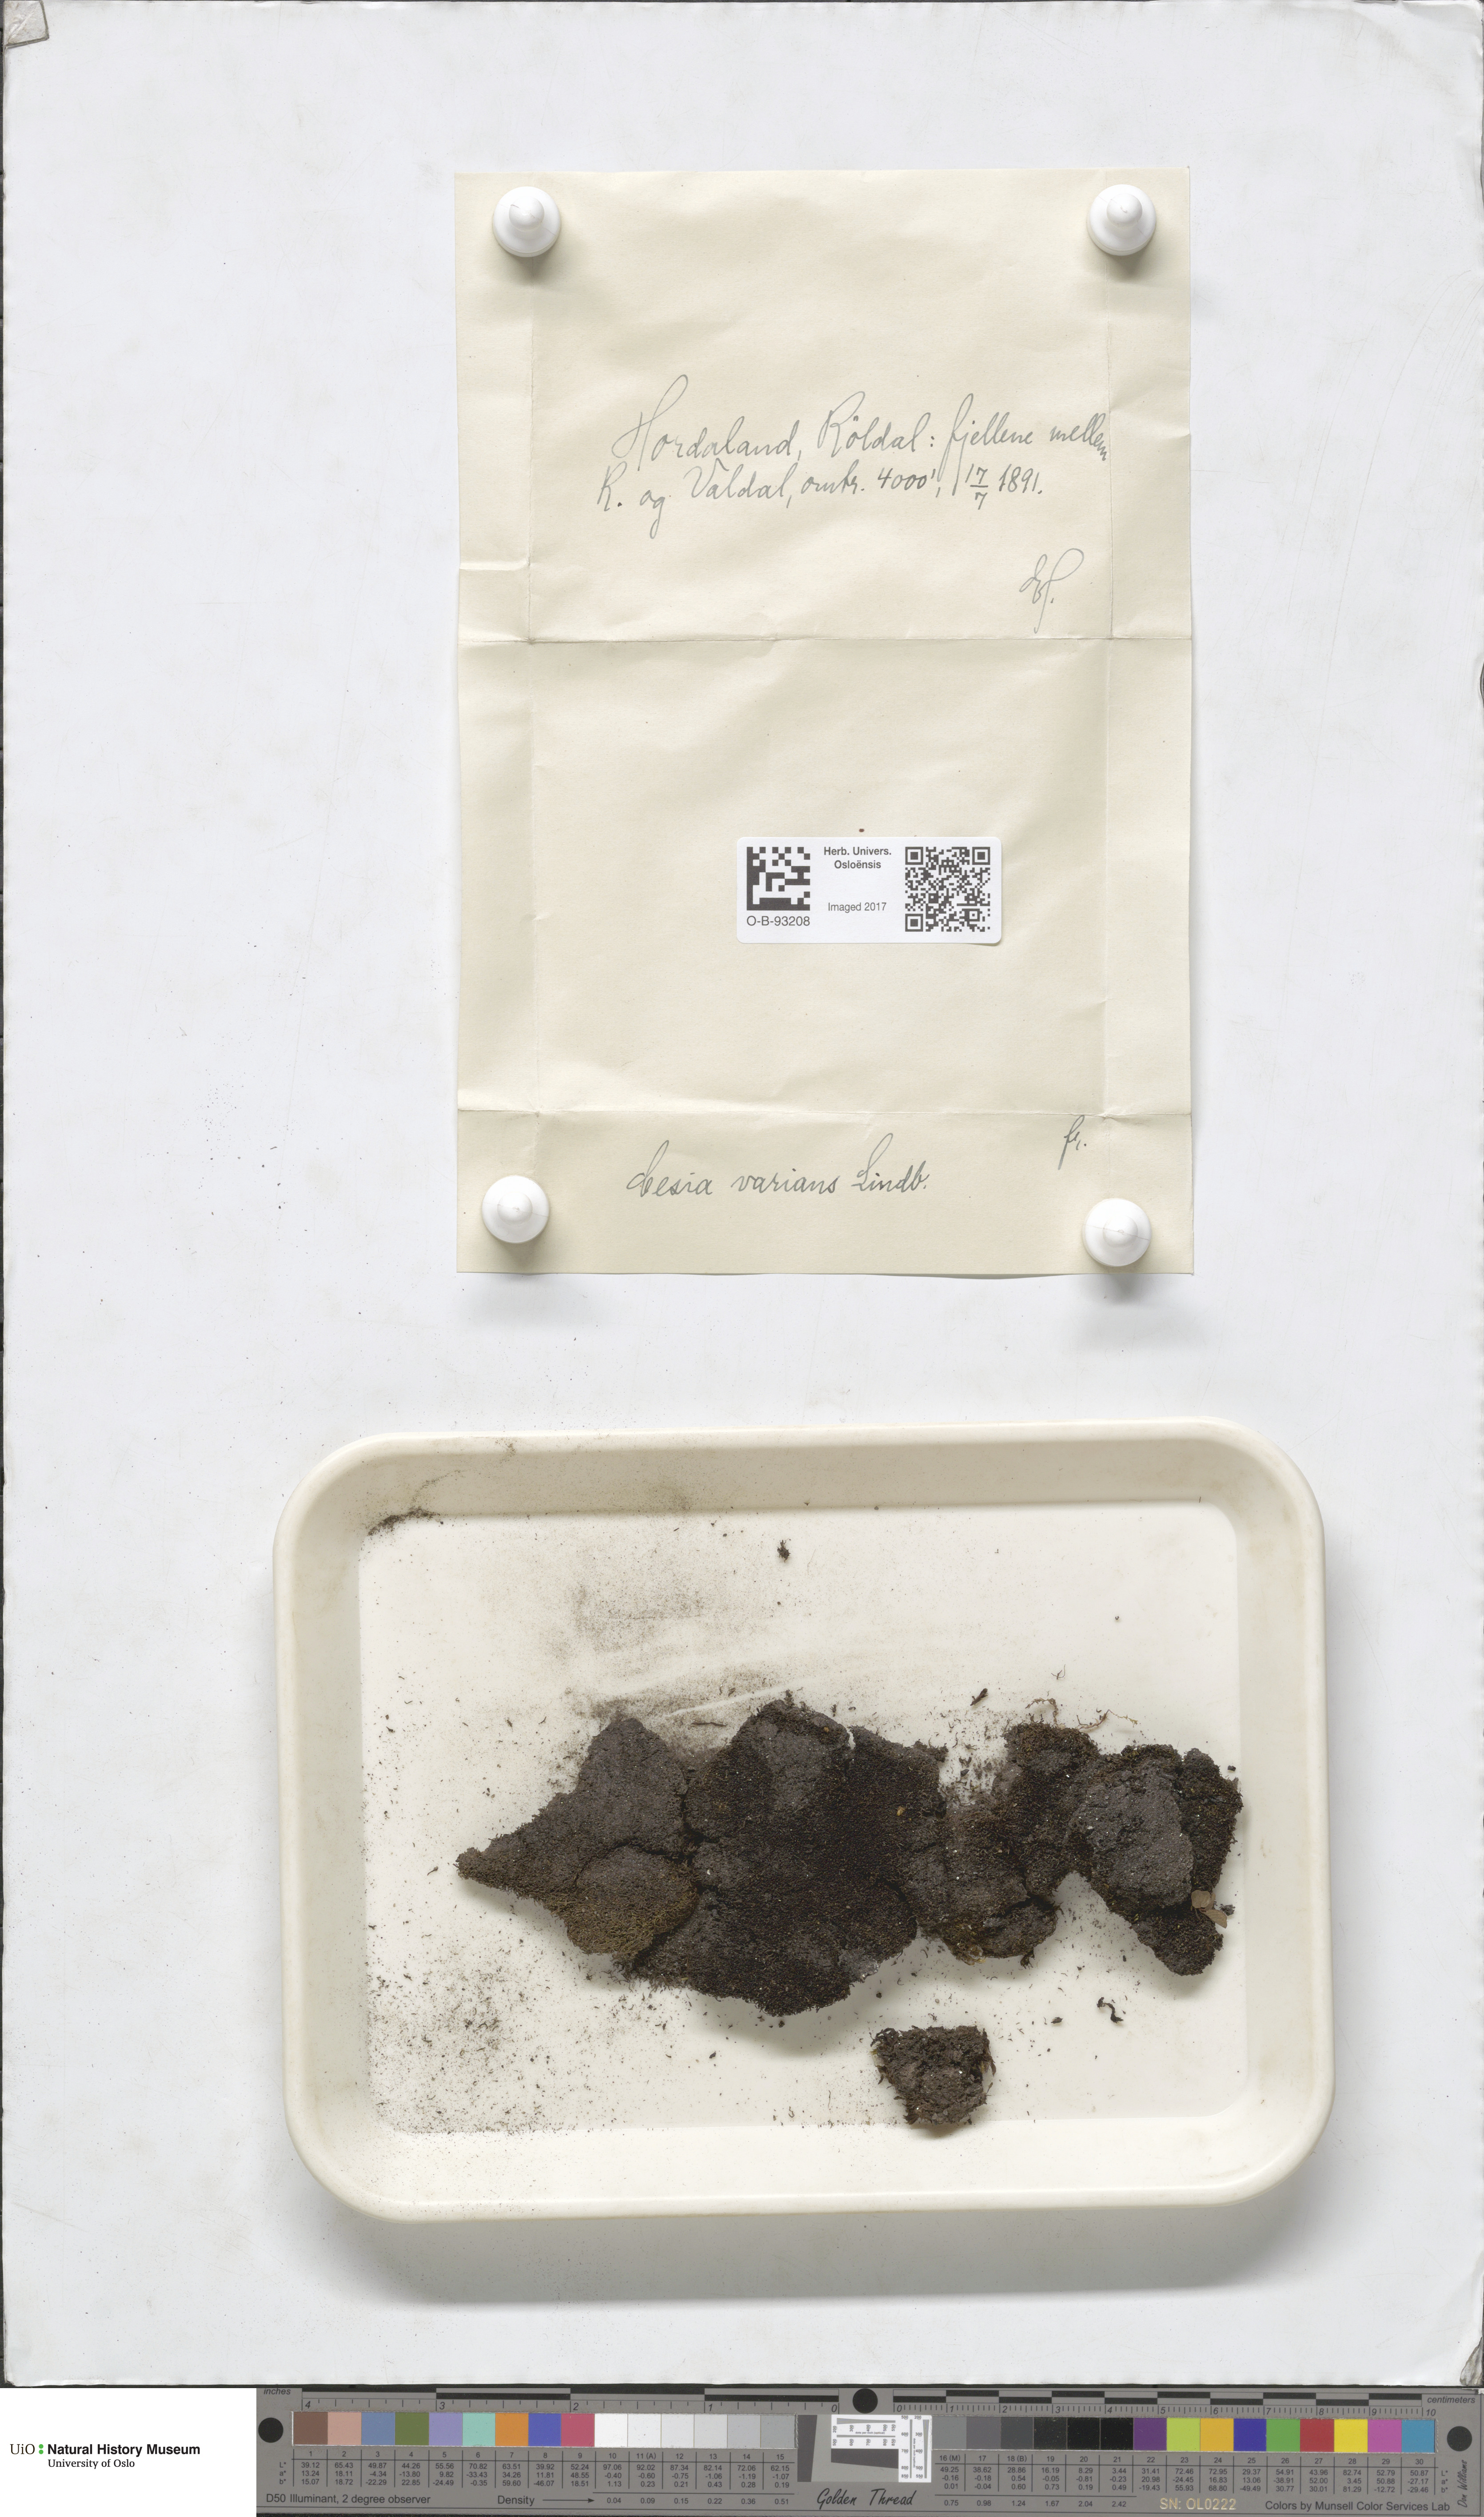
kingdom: Plantae
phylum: Marchantiophyta
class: Jungermanniopsida
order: Jungermanniales
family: Gymnomitriaceae
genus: Gymnomitrion
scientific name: Gymnomitrion brevissimum
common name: Snow rustwort
